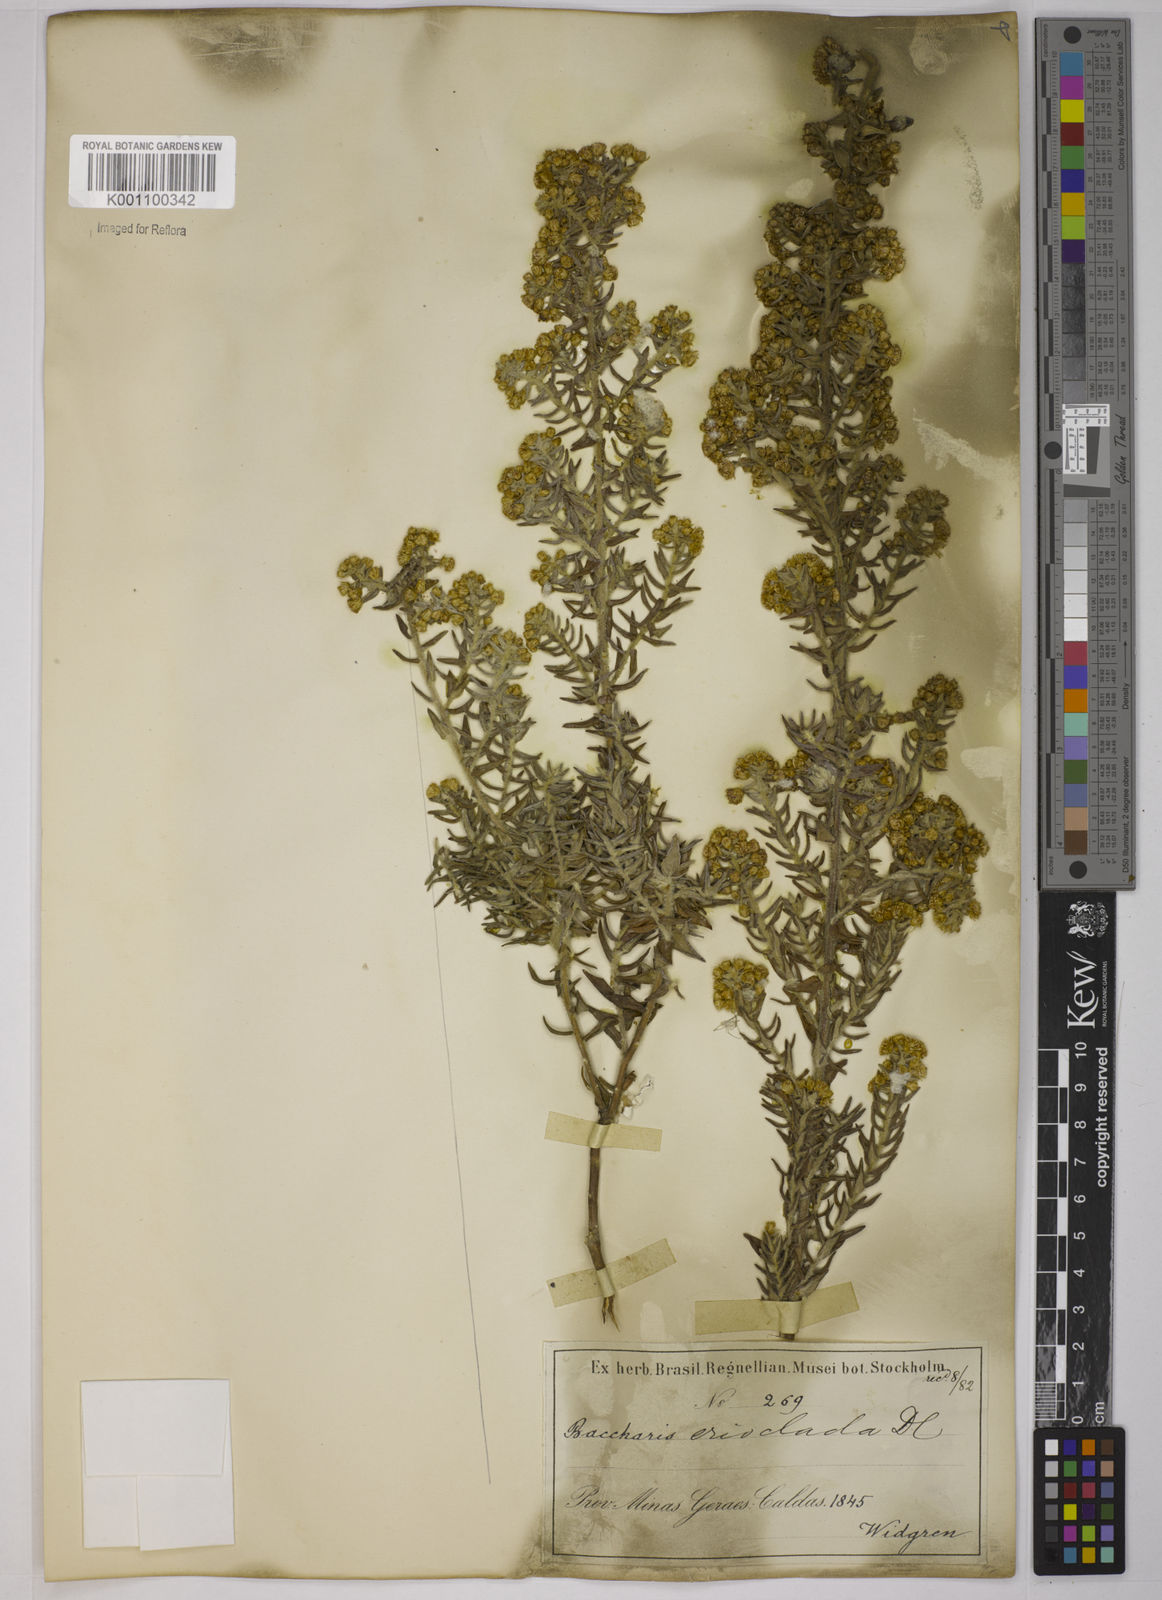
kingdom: Plantae
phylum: Tracheophyta
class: Magnoliopsida
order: Asterales
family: Asteraceae
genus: Baccharis
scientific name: Baccharis erioclada
